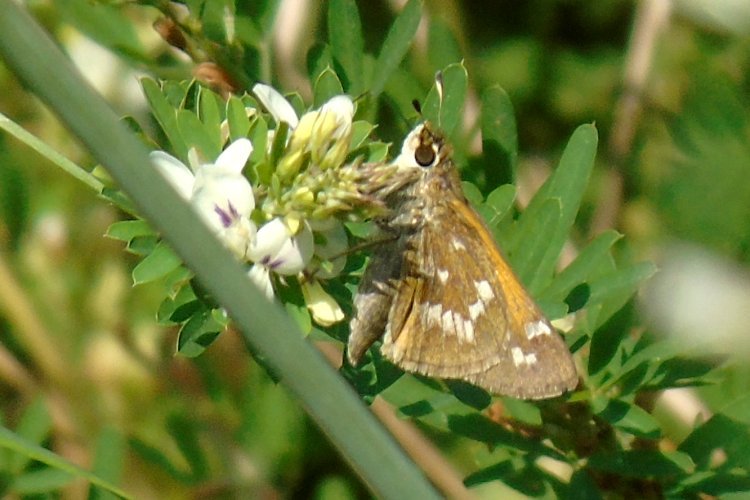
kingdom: Animalia
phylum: Arthropoda
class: Insecta
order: Lepidoptera
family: Hesperiidae
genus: Atalopedes
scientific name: Atalopedes campestris
